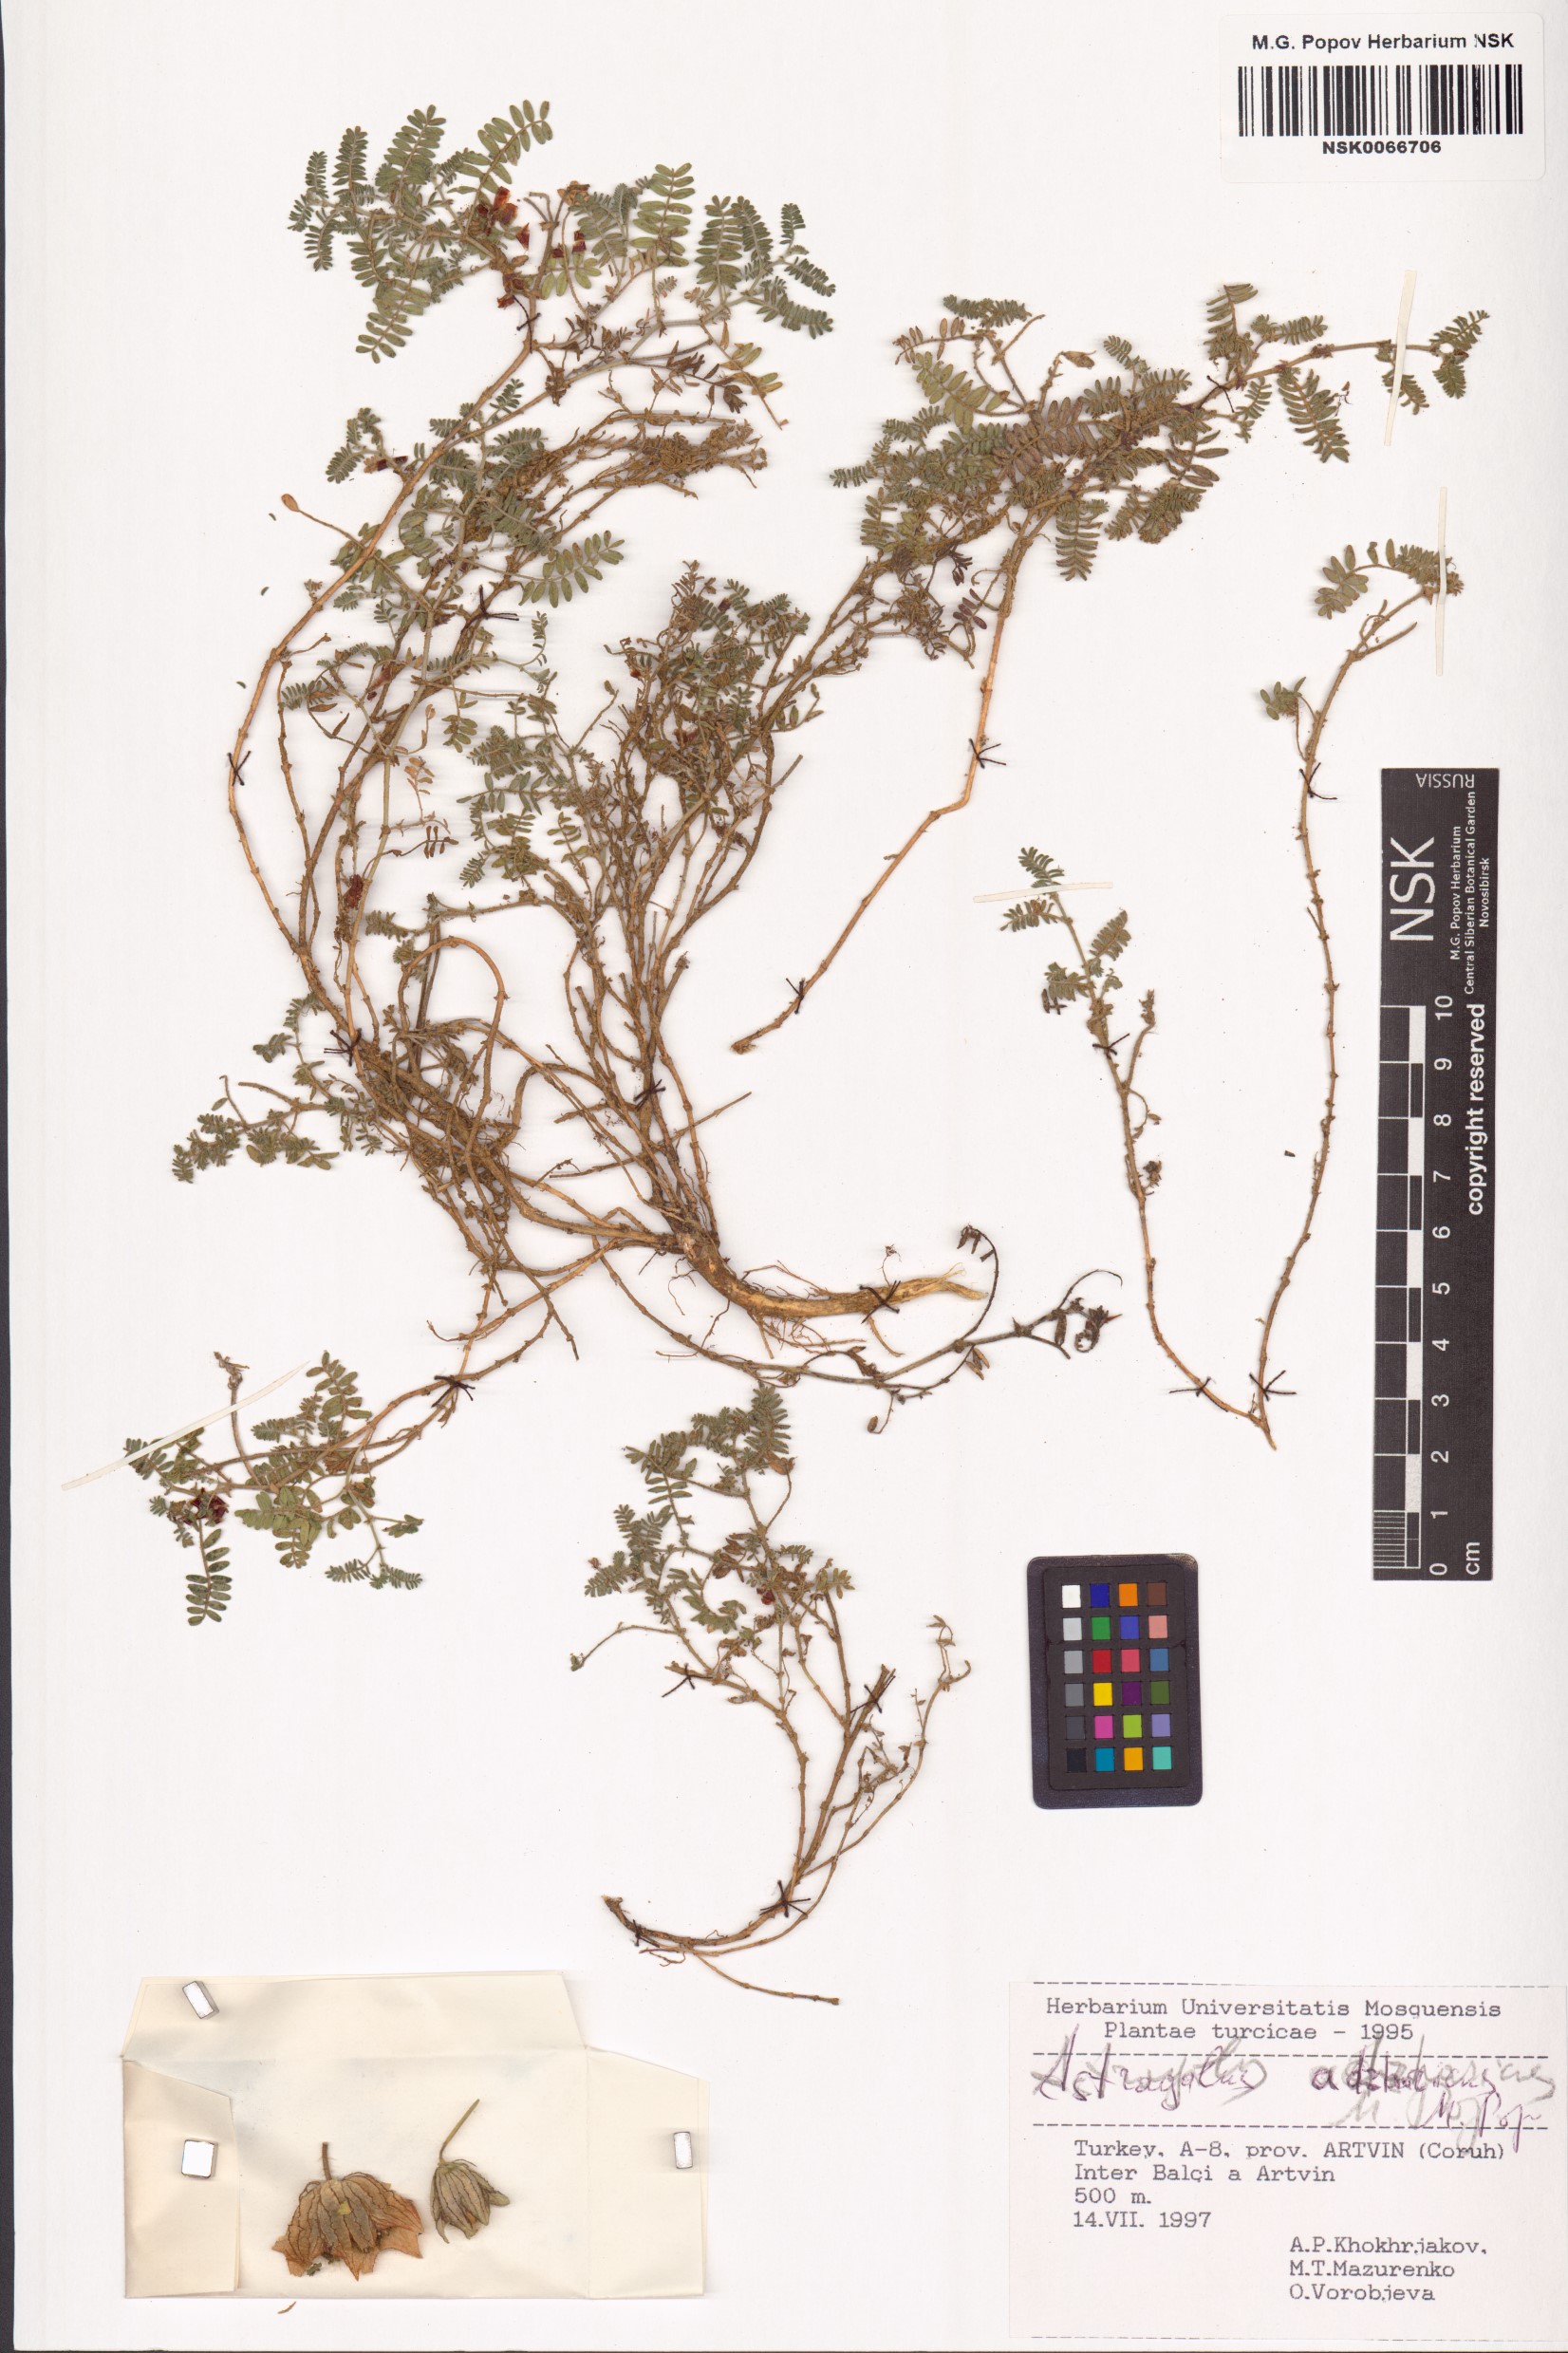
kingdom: Plantae
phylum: Tracheophyta
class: Magnoliopsida
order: Fabales
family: Fabaceae
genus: Astragalus
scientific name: Astragalus adzharicus
